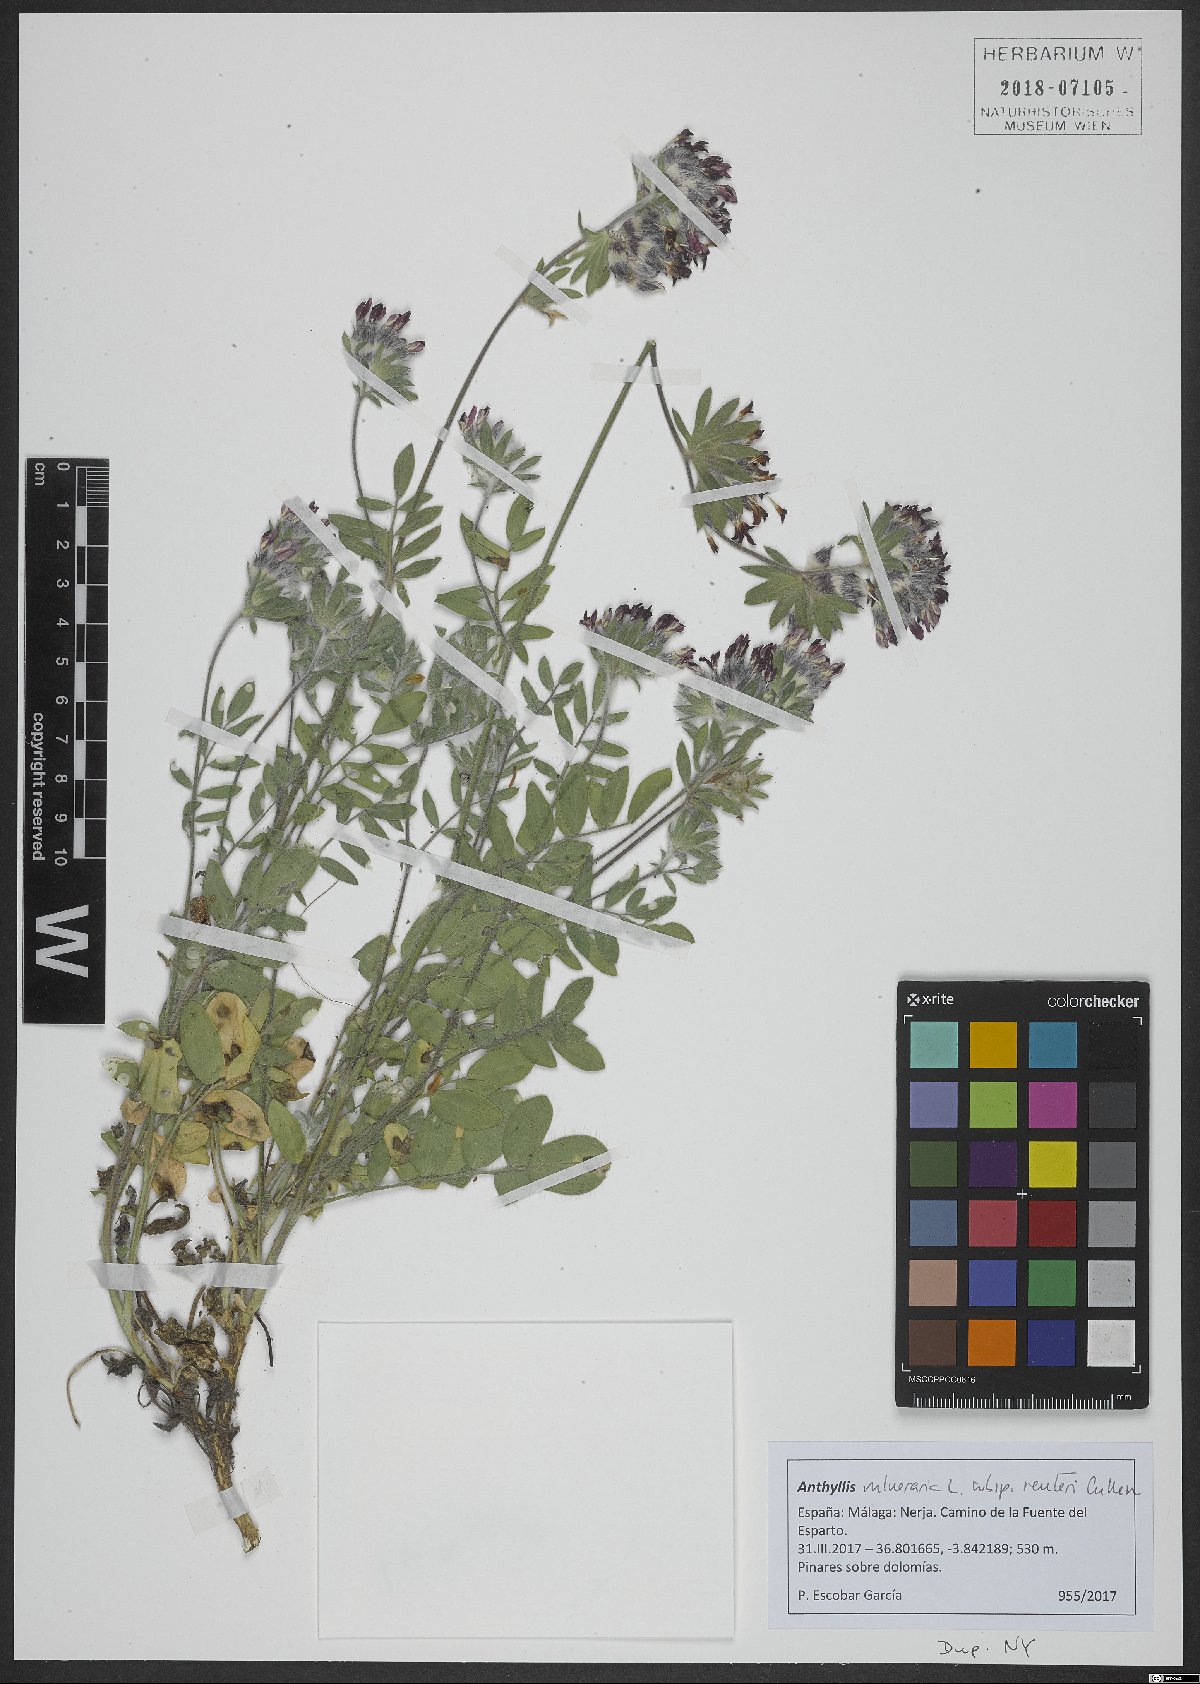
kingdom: Plantae
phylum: Tracheophyta
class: Magnoliopsida
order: Fabales
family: Fabaceae
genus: Anthyllis
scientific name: Anthyllis vulneraria
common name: Kidney vetch
